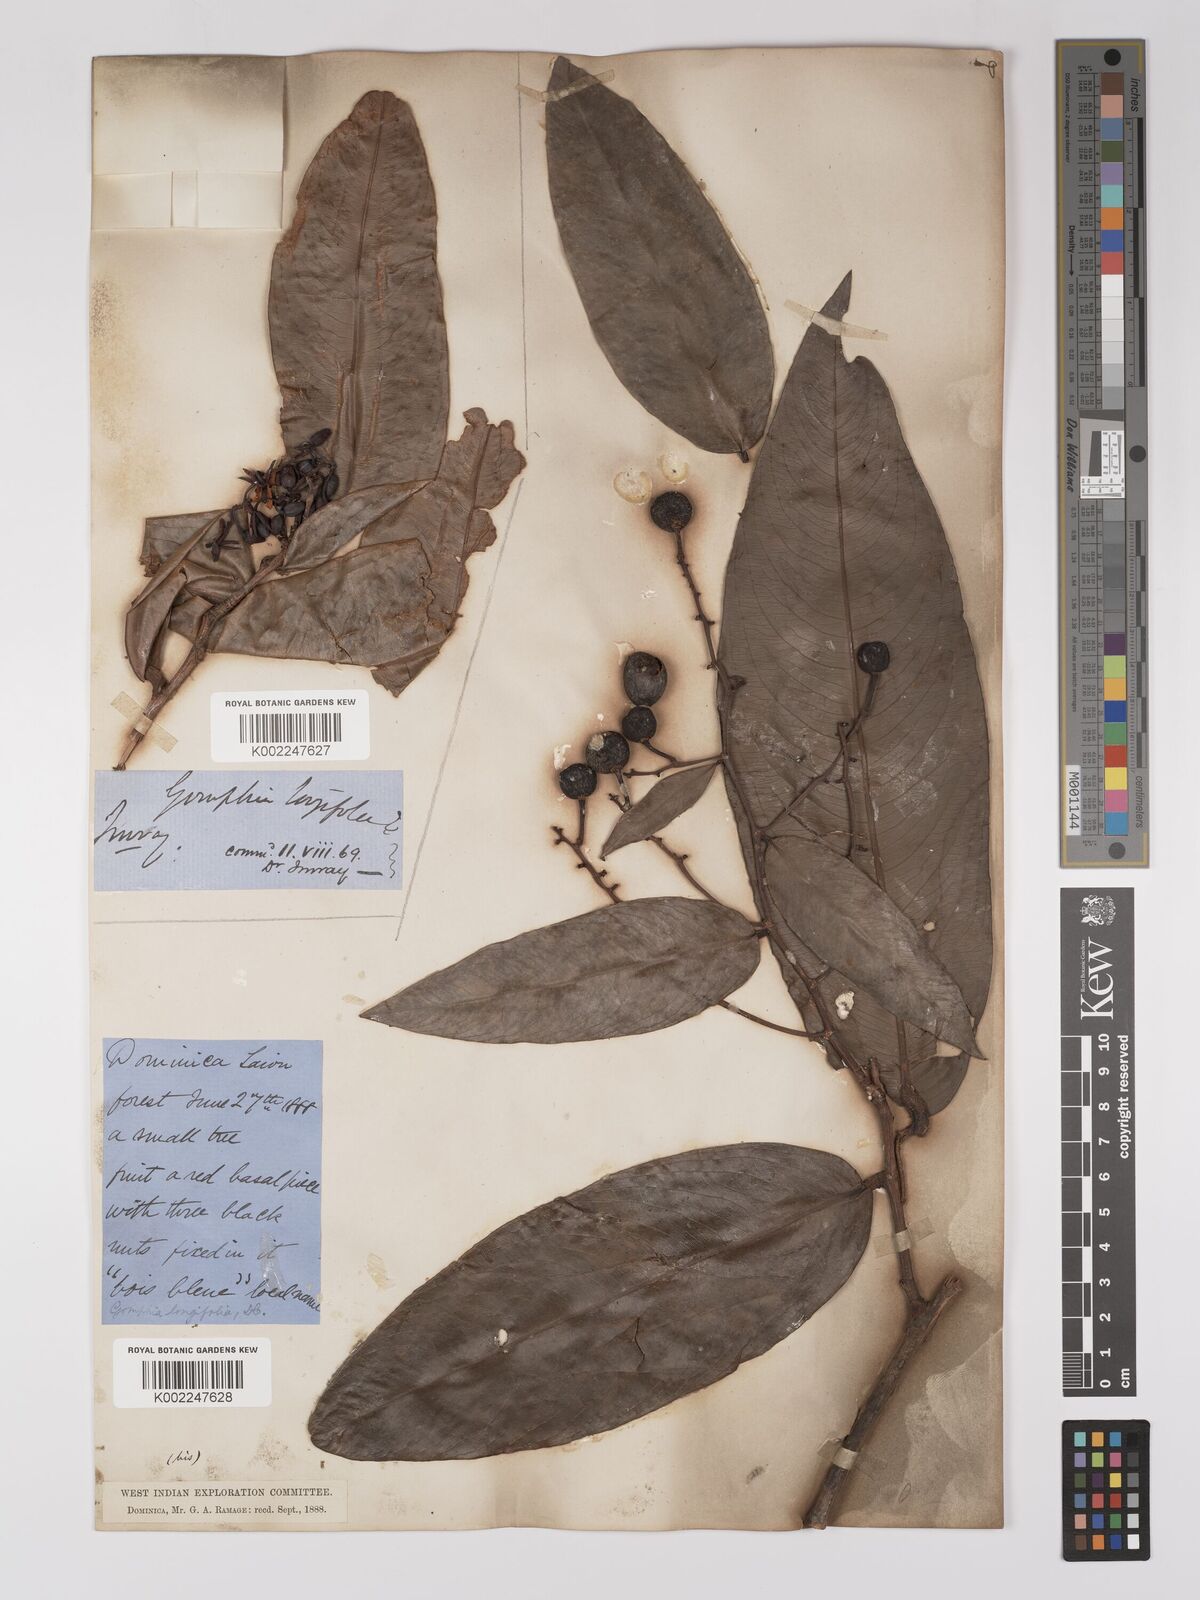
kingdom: Plantae
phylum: Tracheophyta
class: Magnoliopsida
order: Malpighiales
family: Ochnaceae
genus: Ouratea
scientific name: Ouratea longifolia
